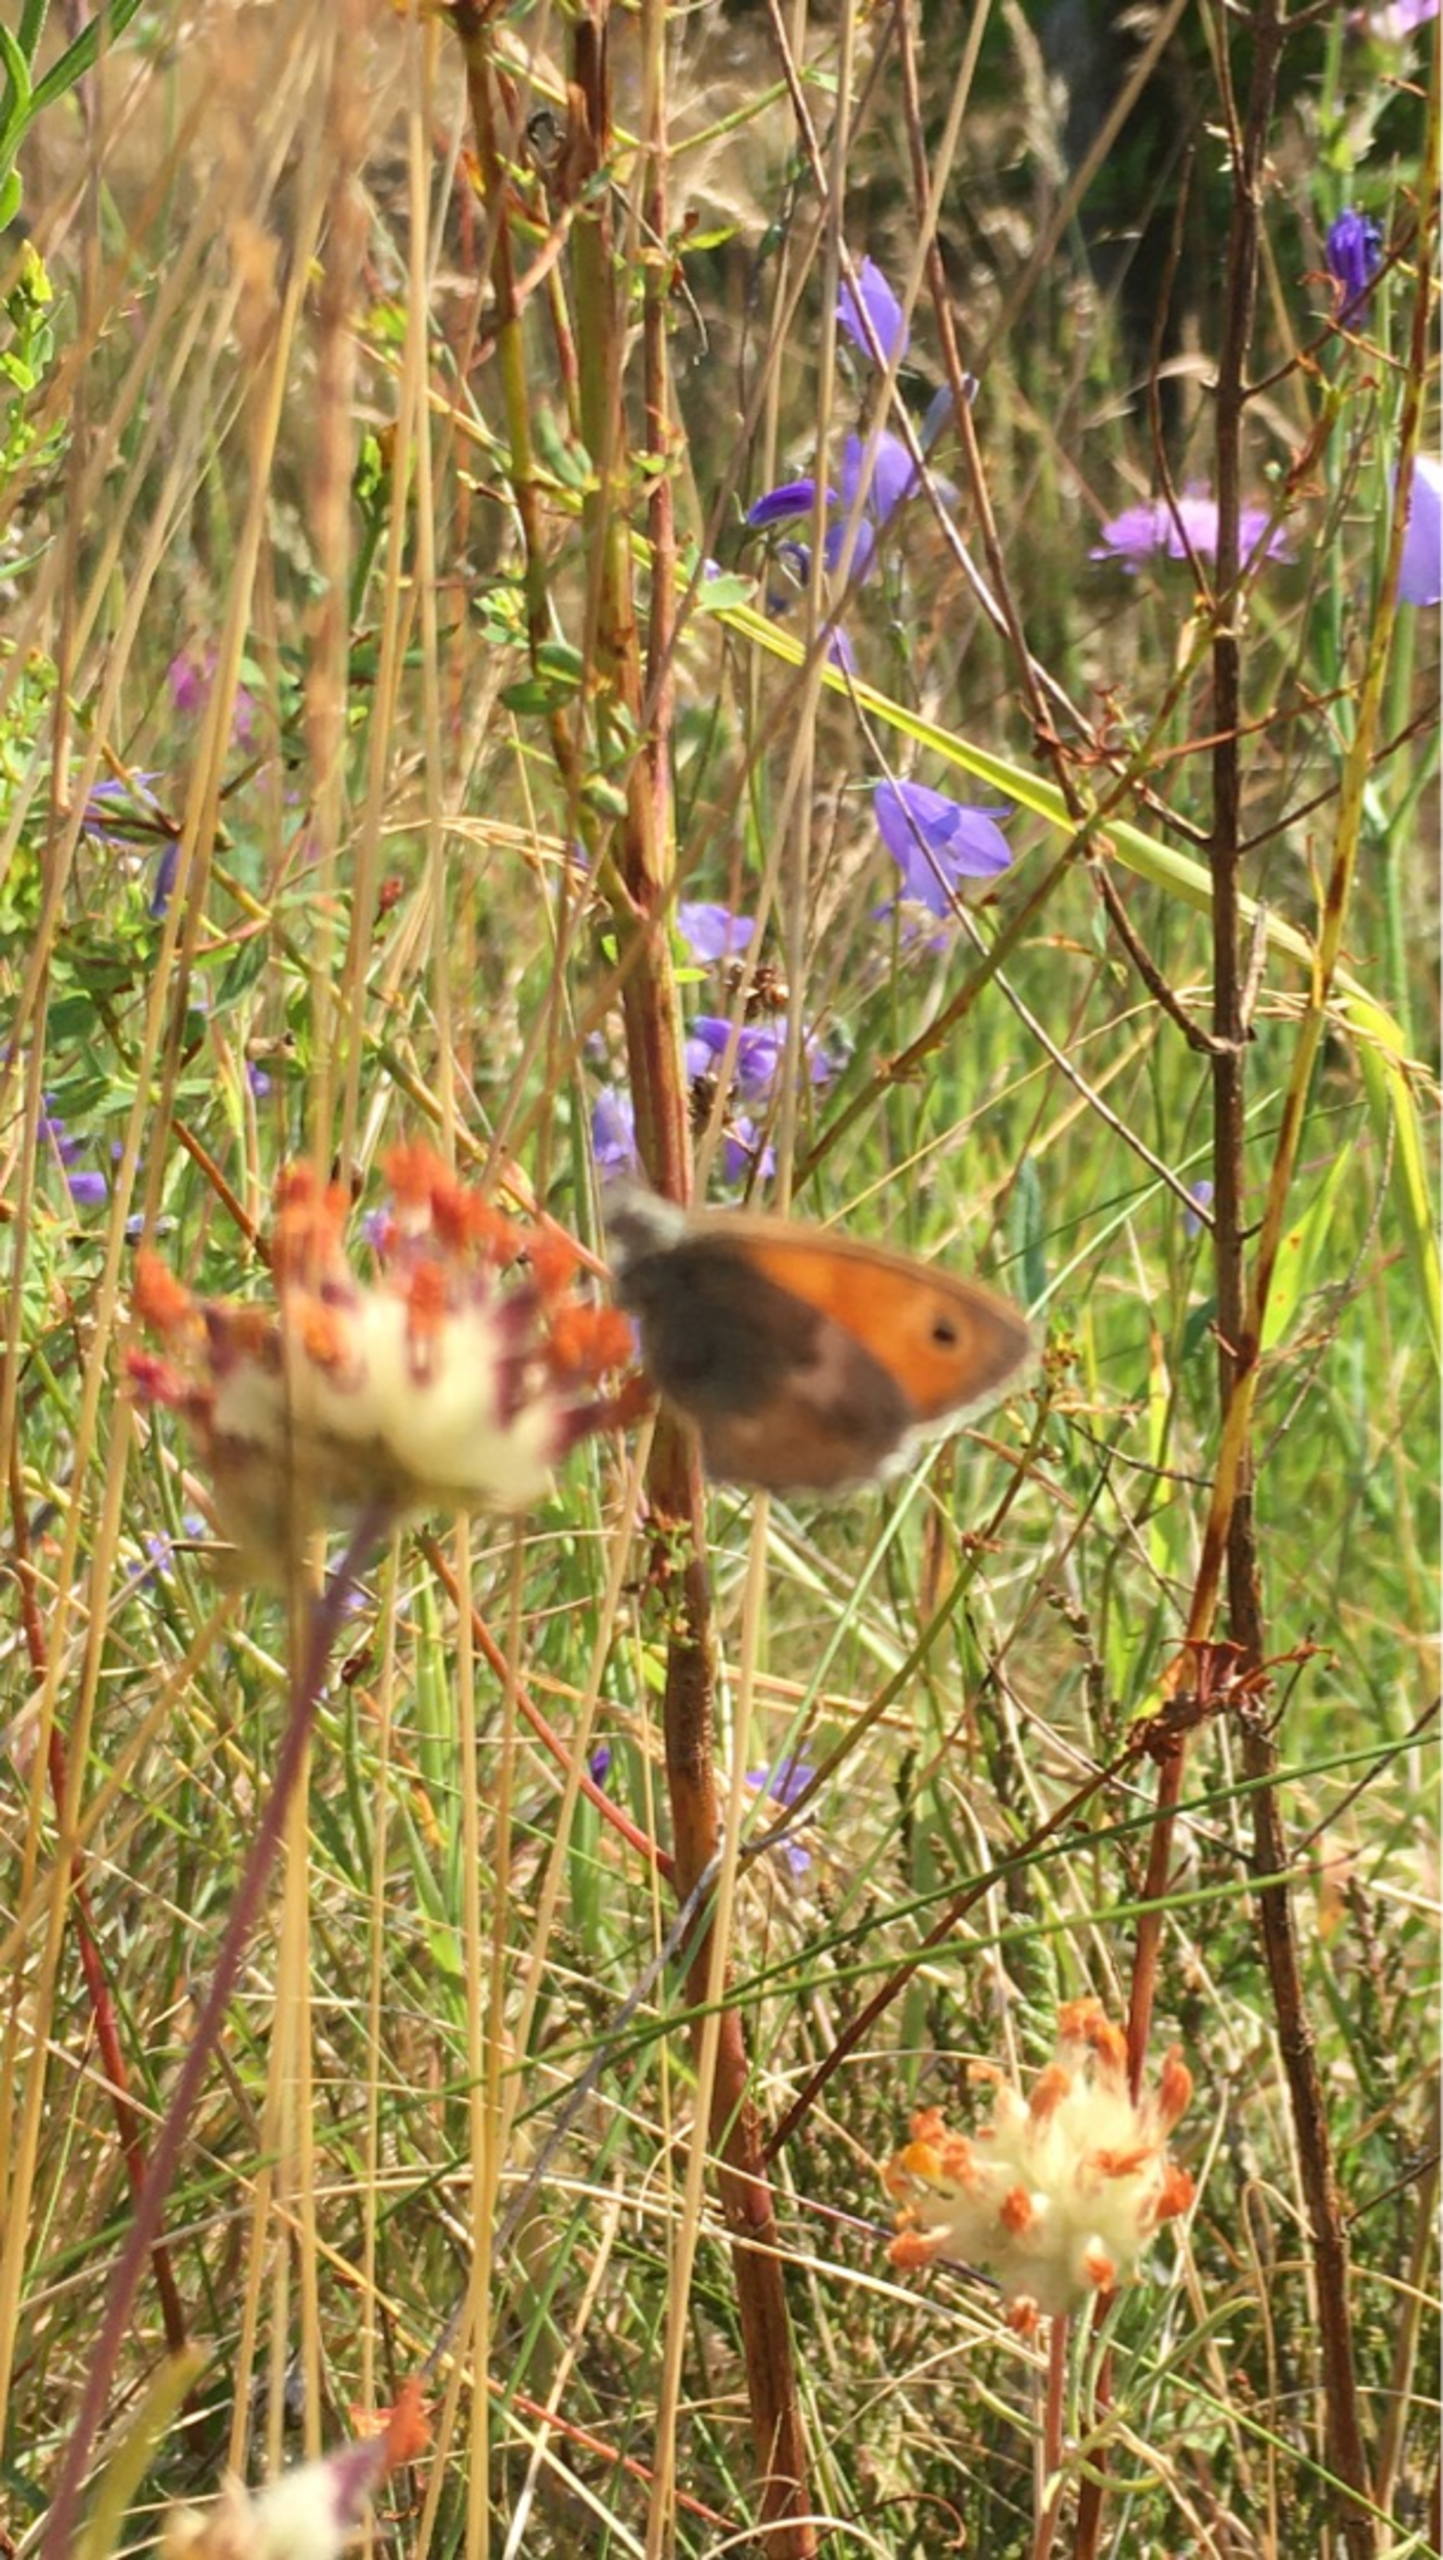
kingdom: Animalia
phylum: Arthropoda
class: Insecta
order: Lepidoptera
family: Nymphalidae
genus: Coenonympha
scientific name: Coenonympha pamphilus
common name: Okkergul randøje
